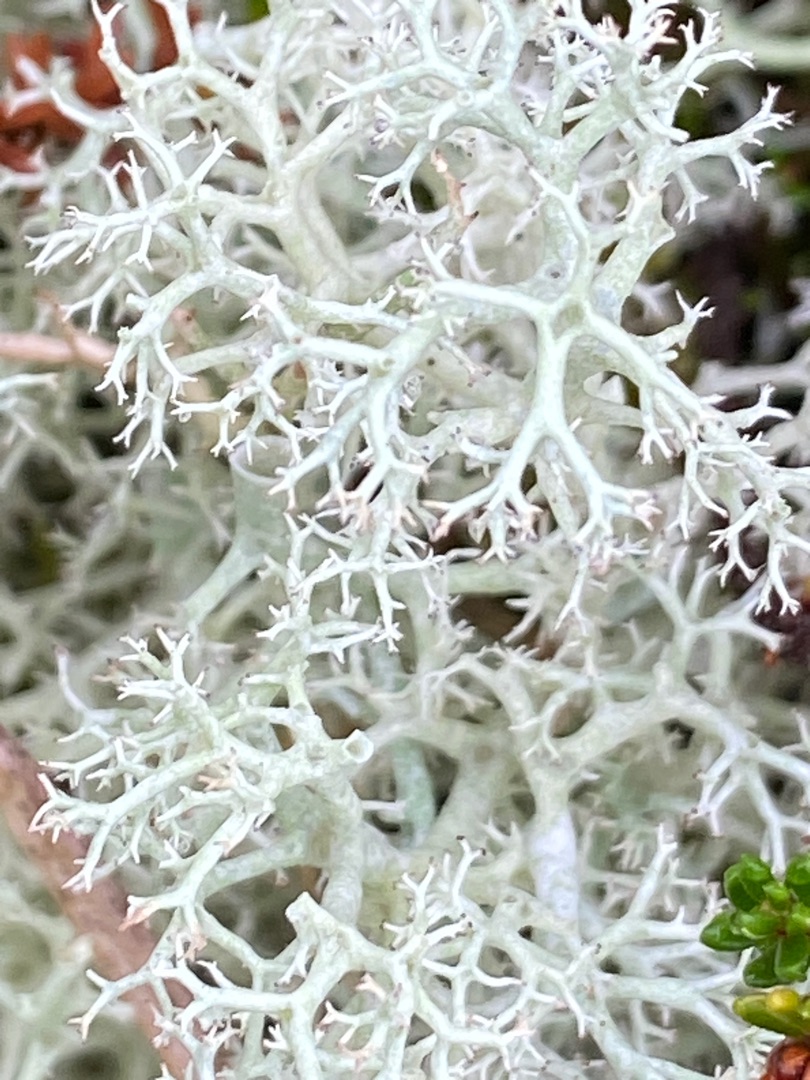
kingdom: Fungi
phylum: Ascomycota
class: Lecanoromycetes
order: Lecanorales
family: Cladoniaceae
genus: Cladonia
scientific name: Cladonia portentosa
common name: Hede-rensdyrlav
